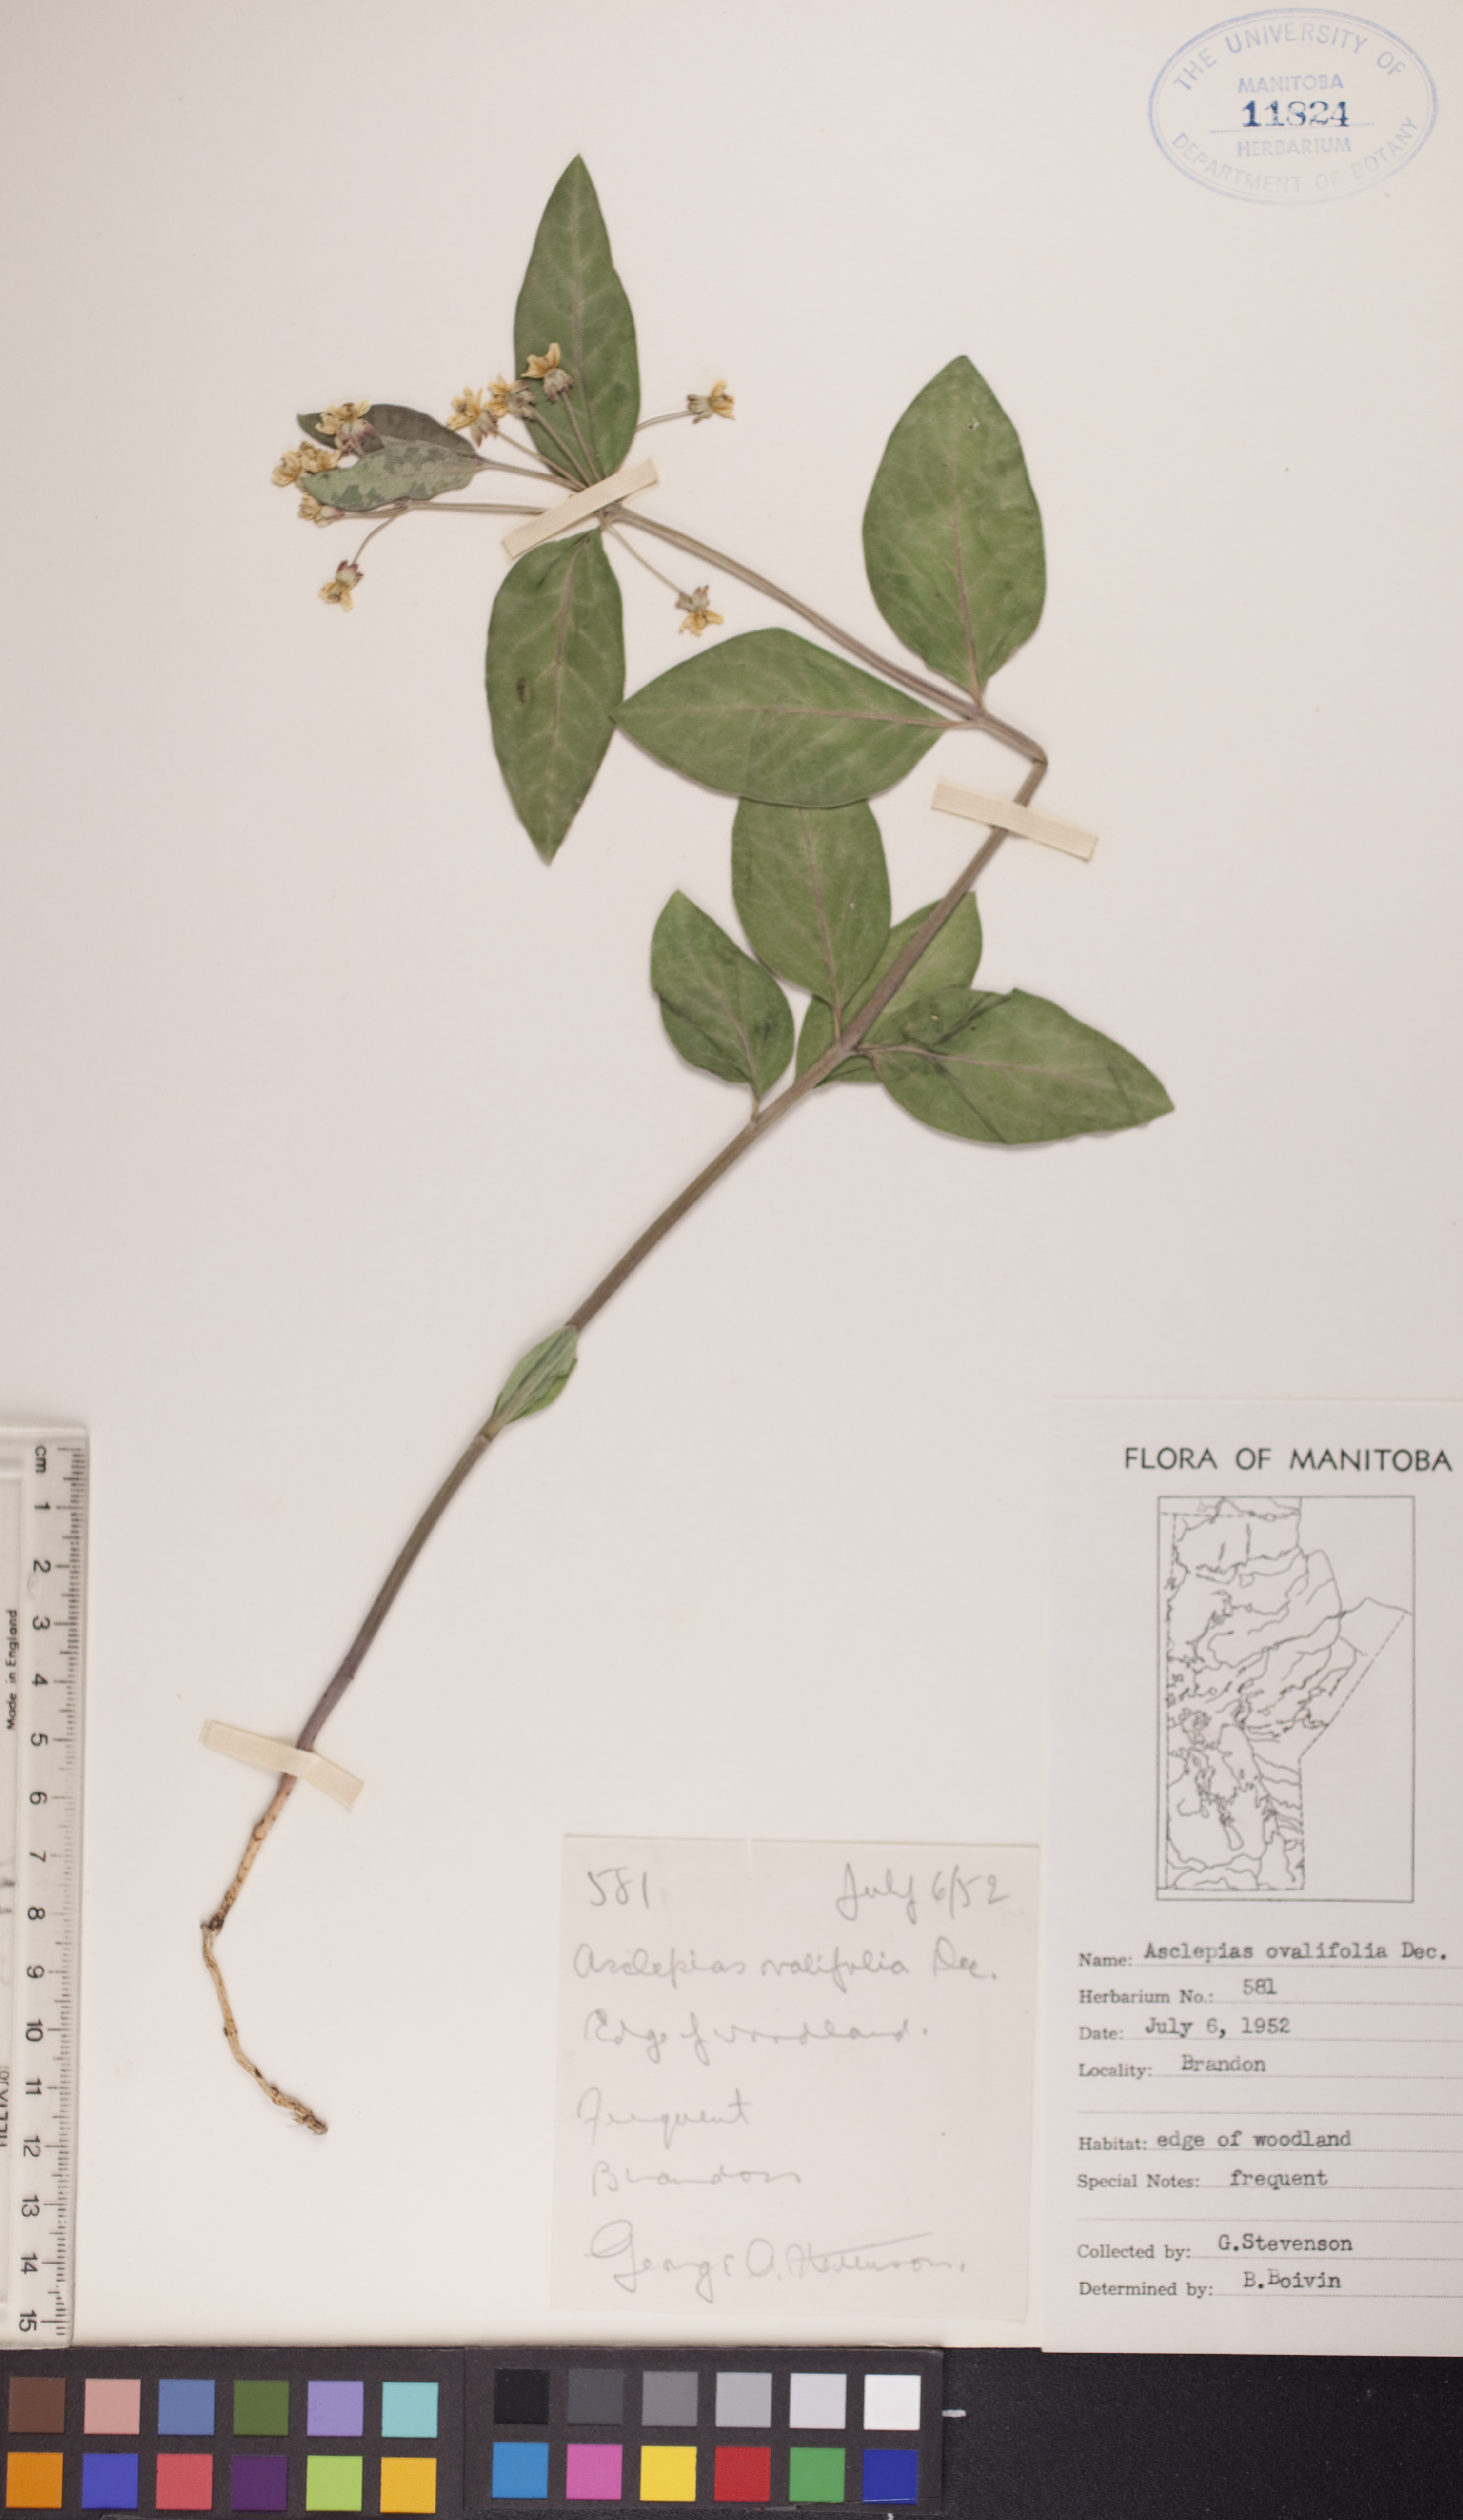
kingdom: Plantae
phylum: Tracheophyta
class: Magnoliopsida
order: Gentianales
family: Apocynaceae
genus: Asclepias
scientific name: Asclepias ovalifolia
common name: Dwarf milkweed
